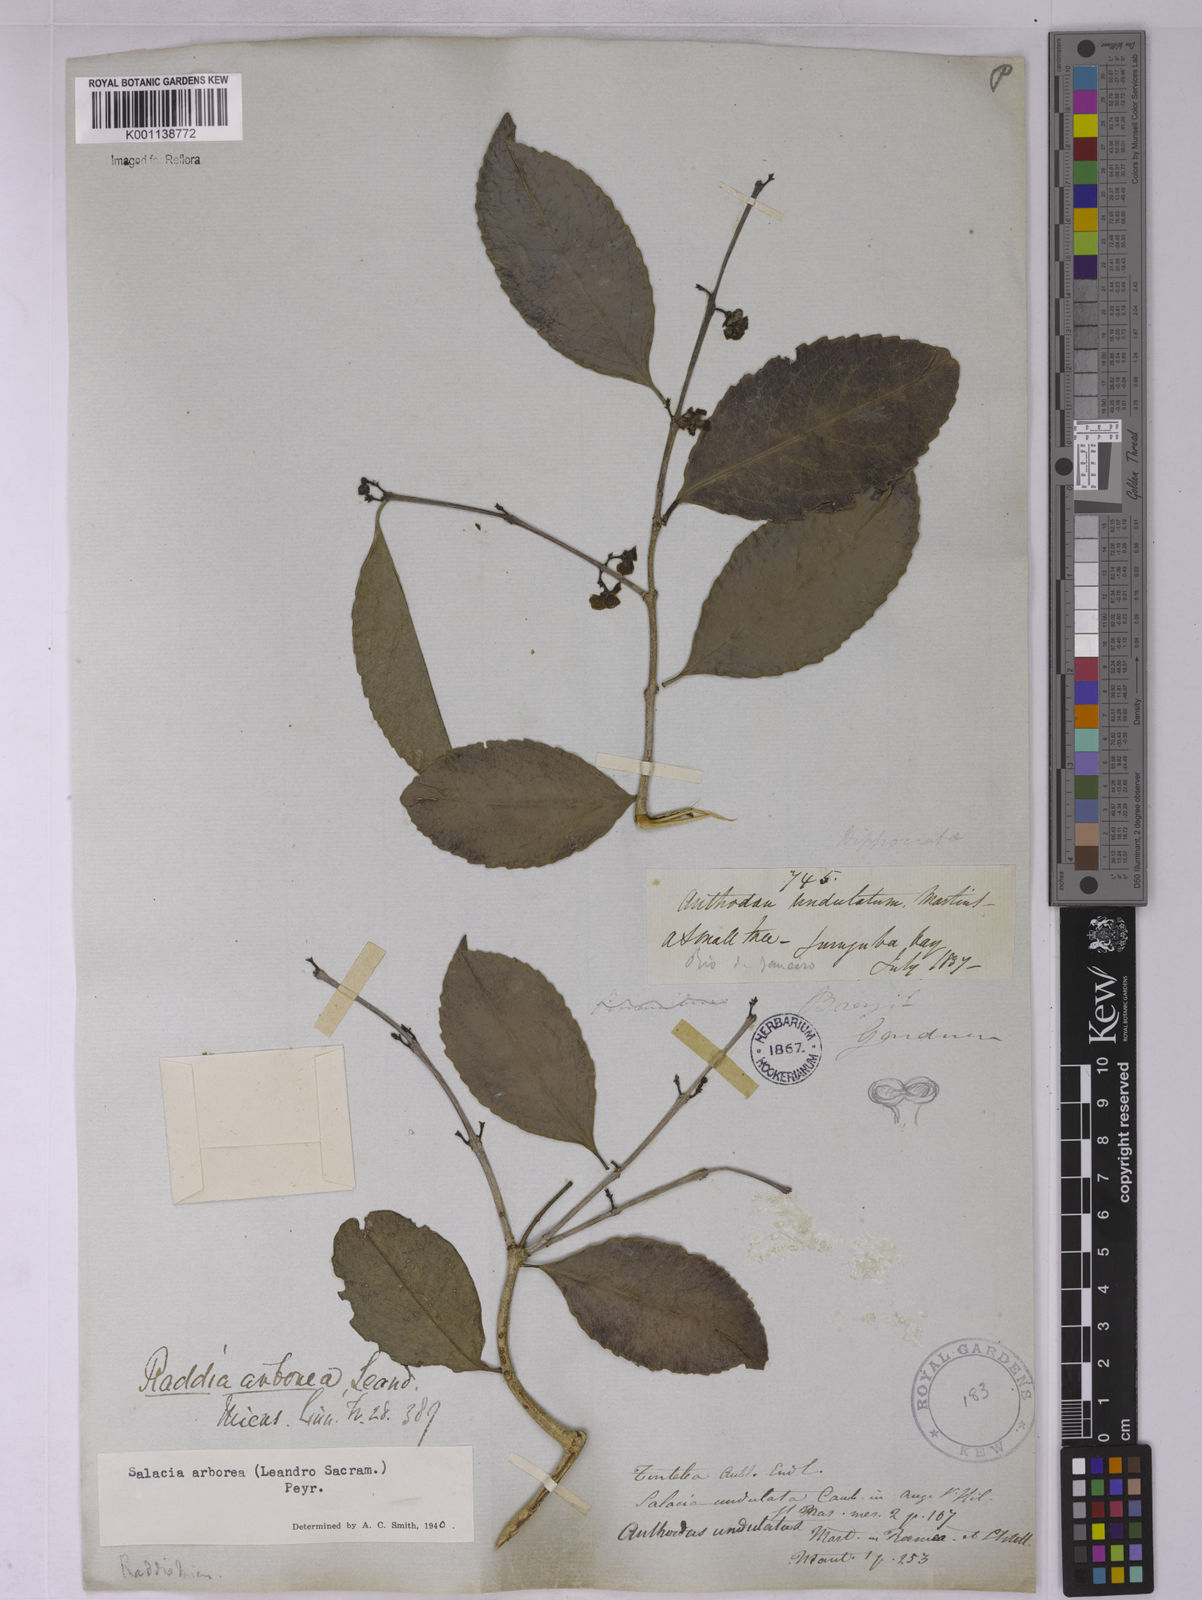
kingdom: Plantae
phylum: Tracheophyta
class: Magnoliopsida
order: Celastrales
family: Celastraceae
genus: Salacia
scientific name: Salacia arborea
